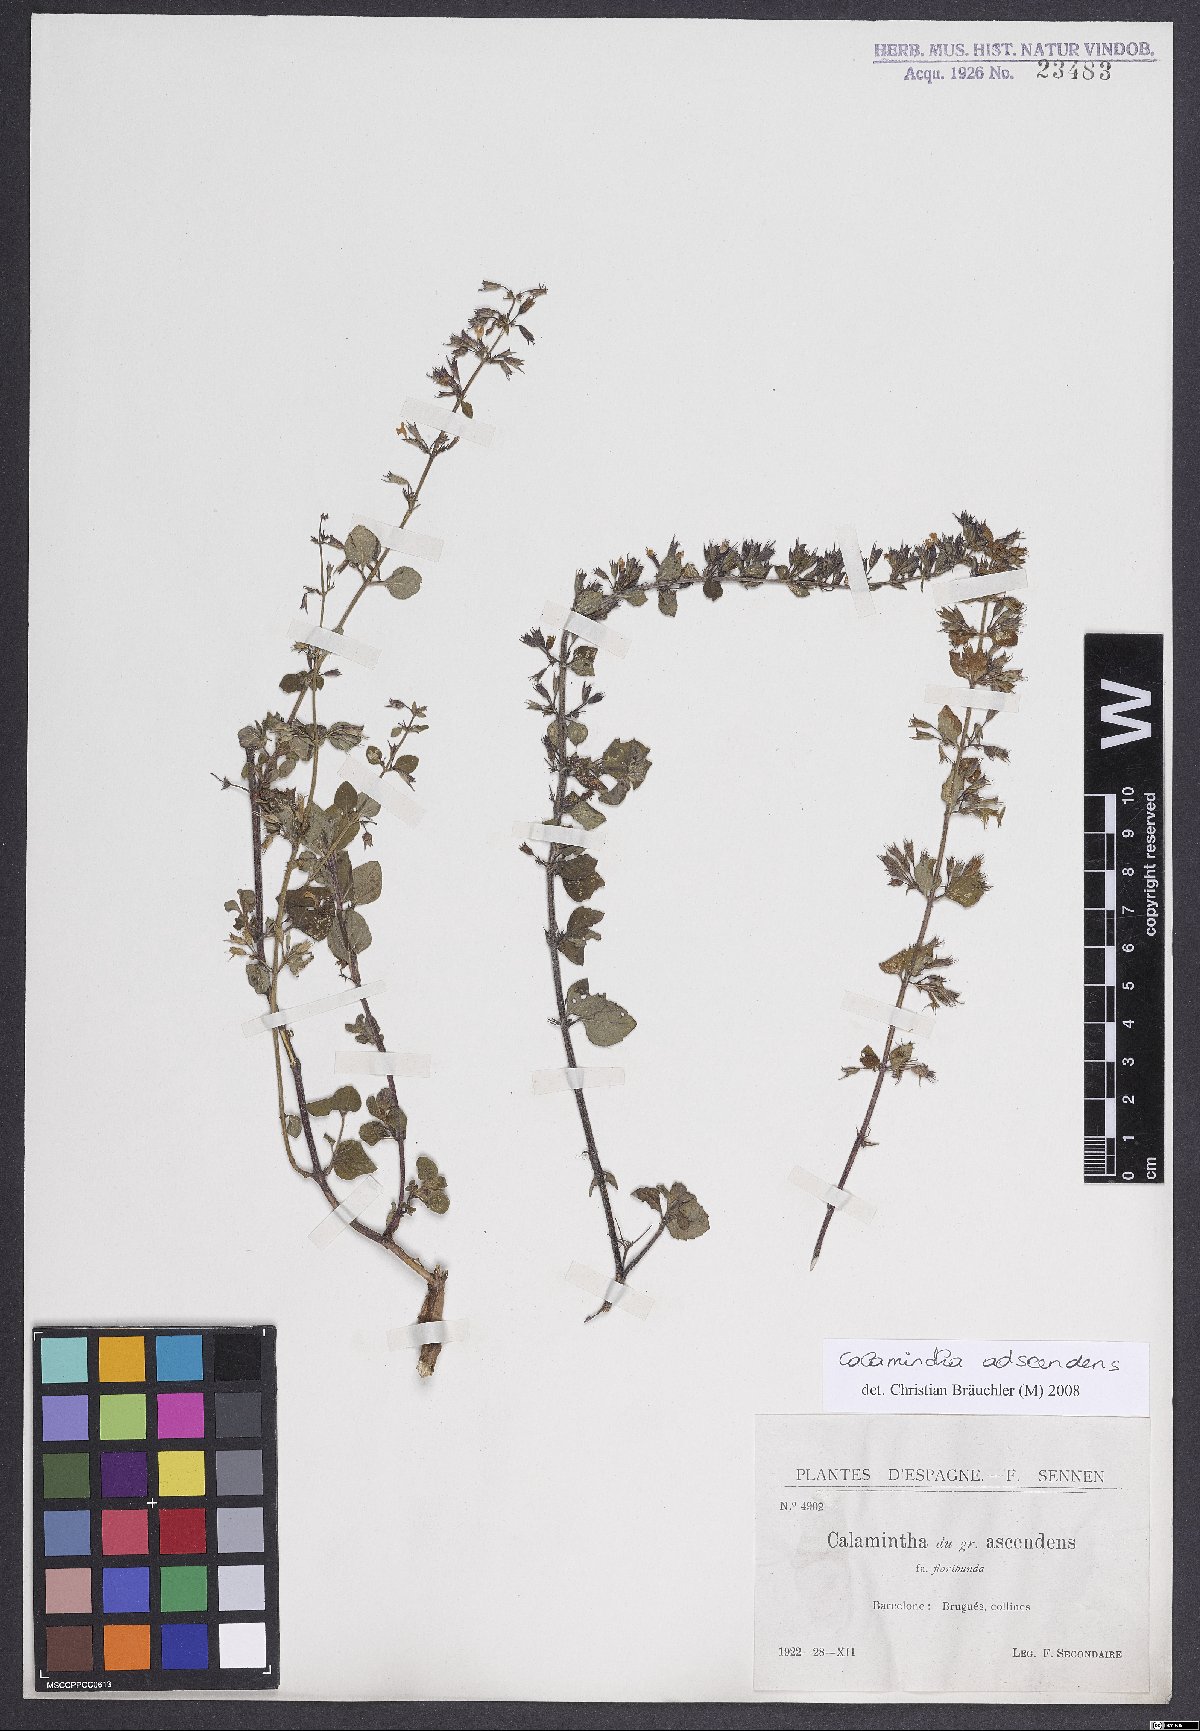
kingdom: Plantae
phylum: Tracheophyta
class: Magnoliopsida
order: Lamiales
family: Lamiaceae
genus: Clinopodium
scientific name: Clinopodium menthifolium
